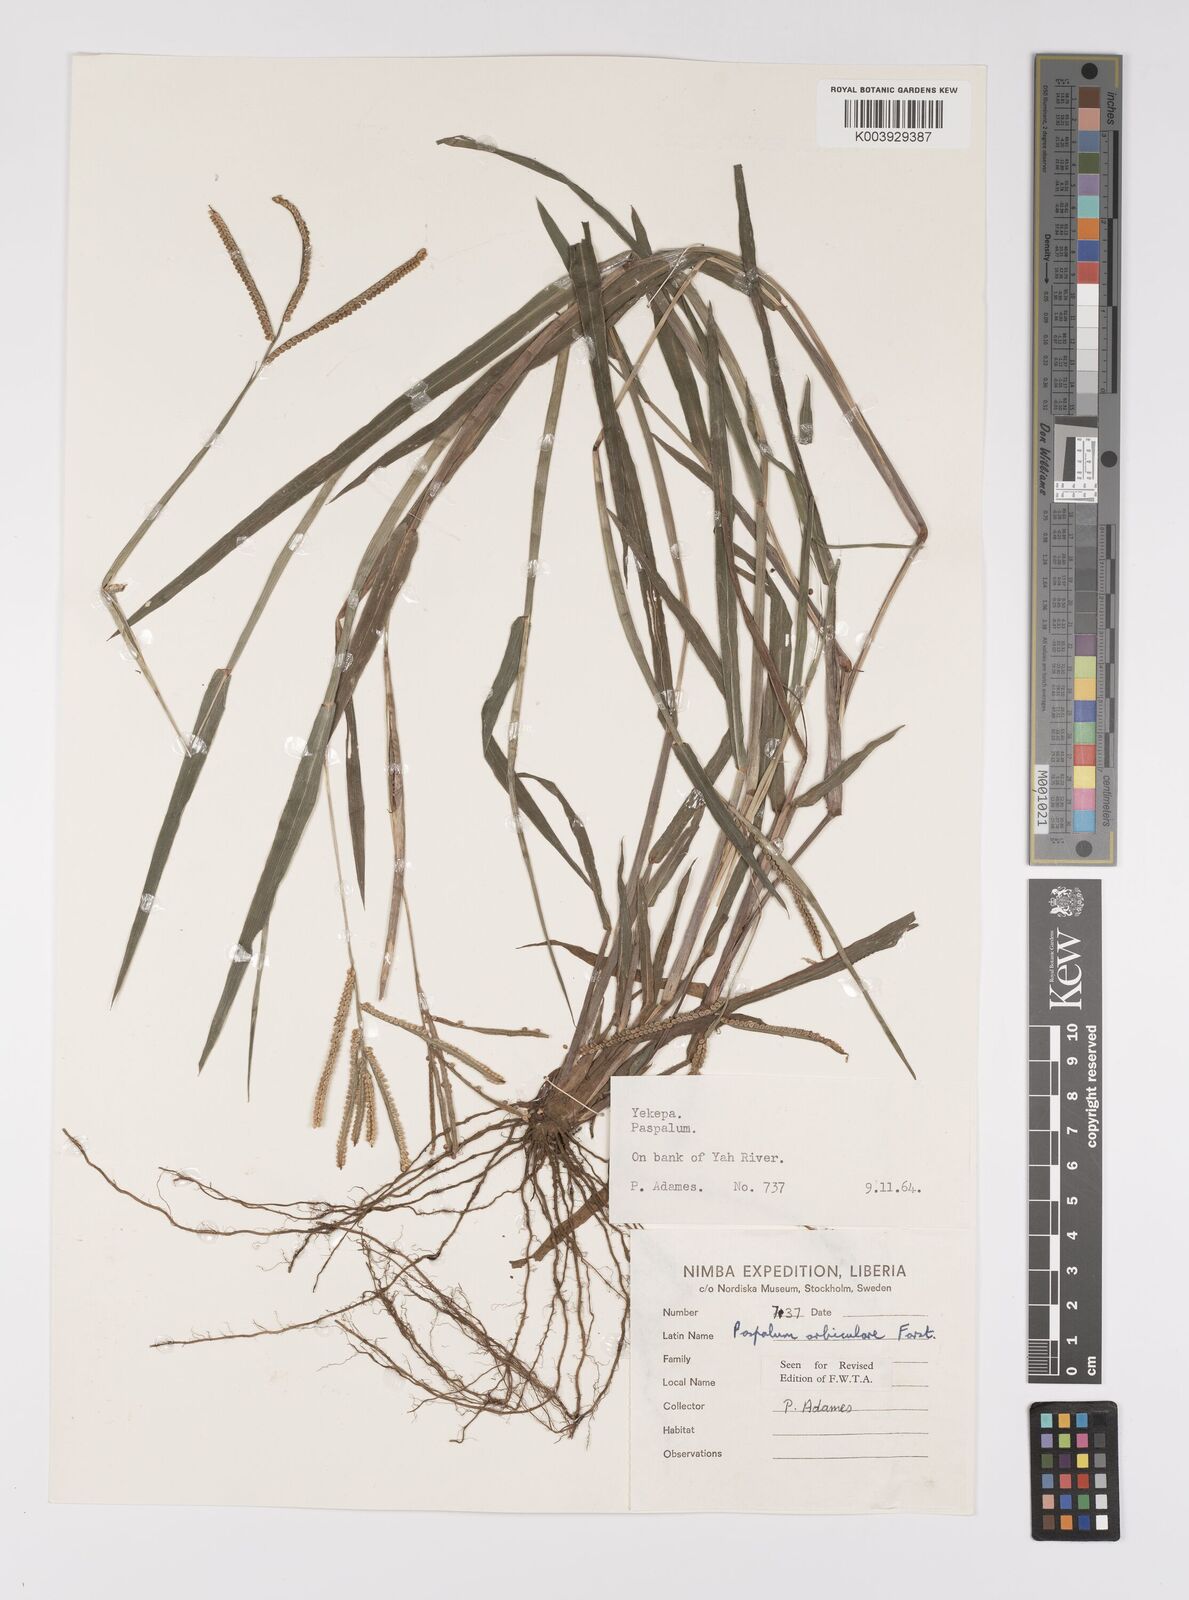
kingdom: Plantae
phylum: Tracheophyta
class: Liliopsida
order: Poales
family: Poaceae
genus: Paspalum
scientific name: Paspalum scrobiculatum
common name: Kodo millet
